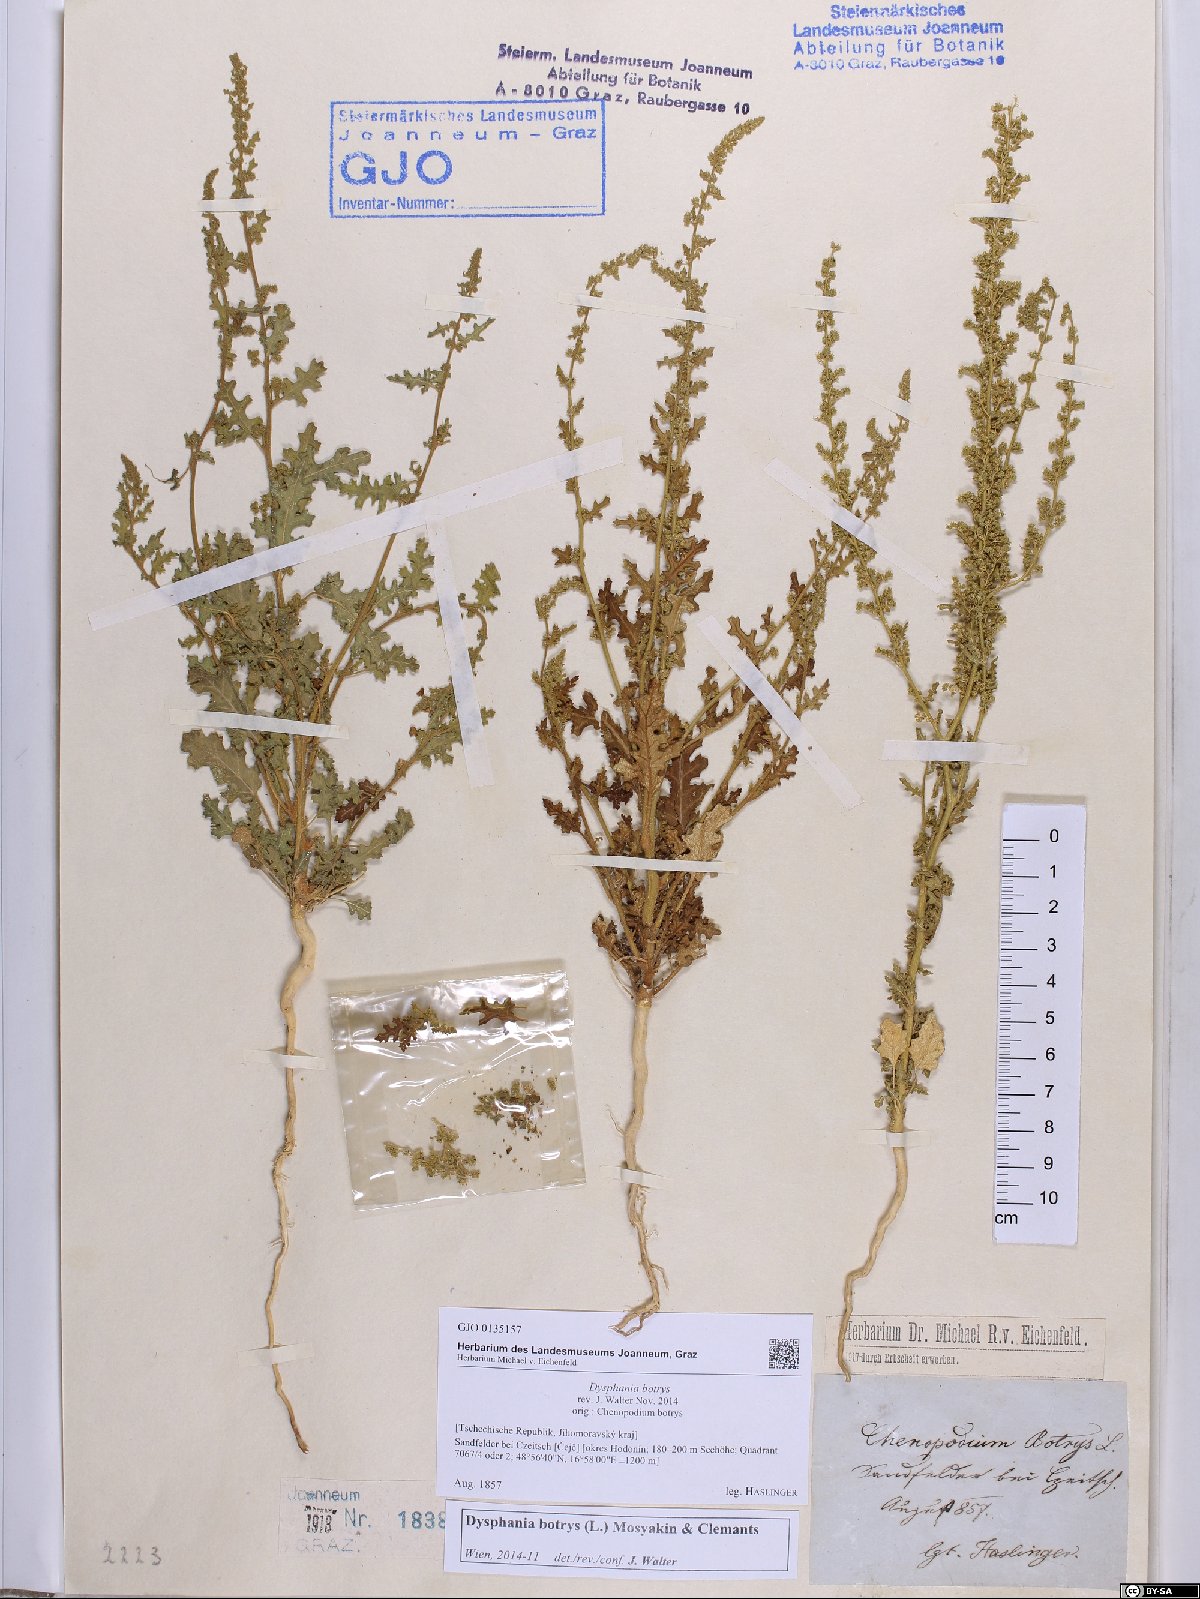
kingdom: Plantae
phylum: Tracheophyta
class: Magnoliopsida
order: Caryophyllales
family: Amaranthaceae
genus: Dysphania
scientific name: Dysphania botrys
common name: Feather-geranium
